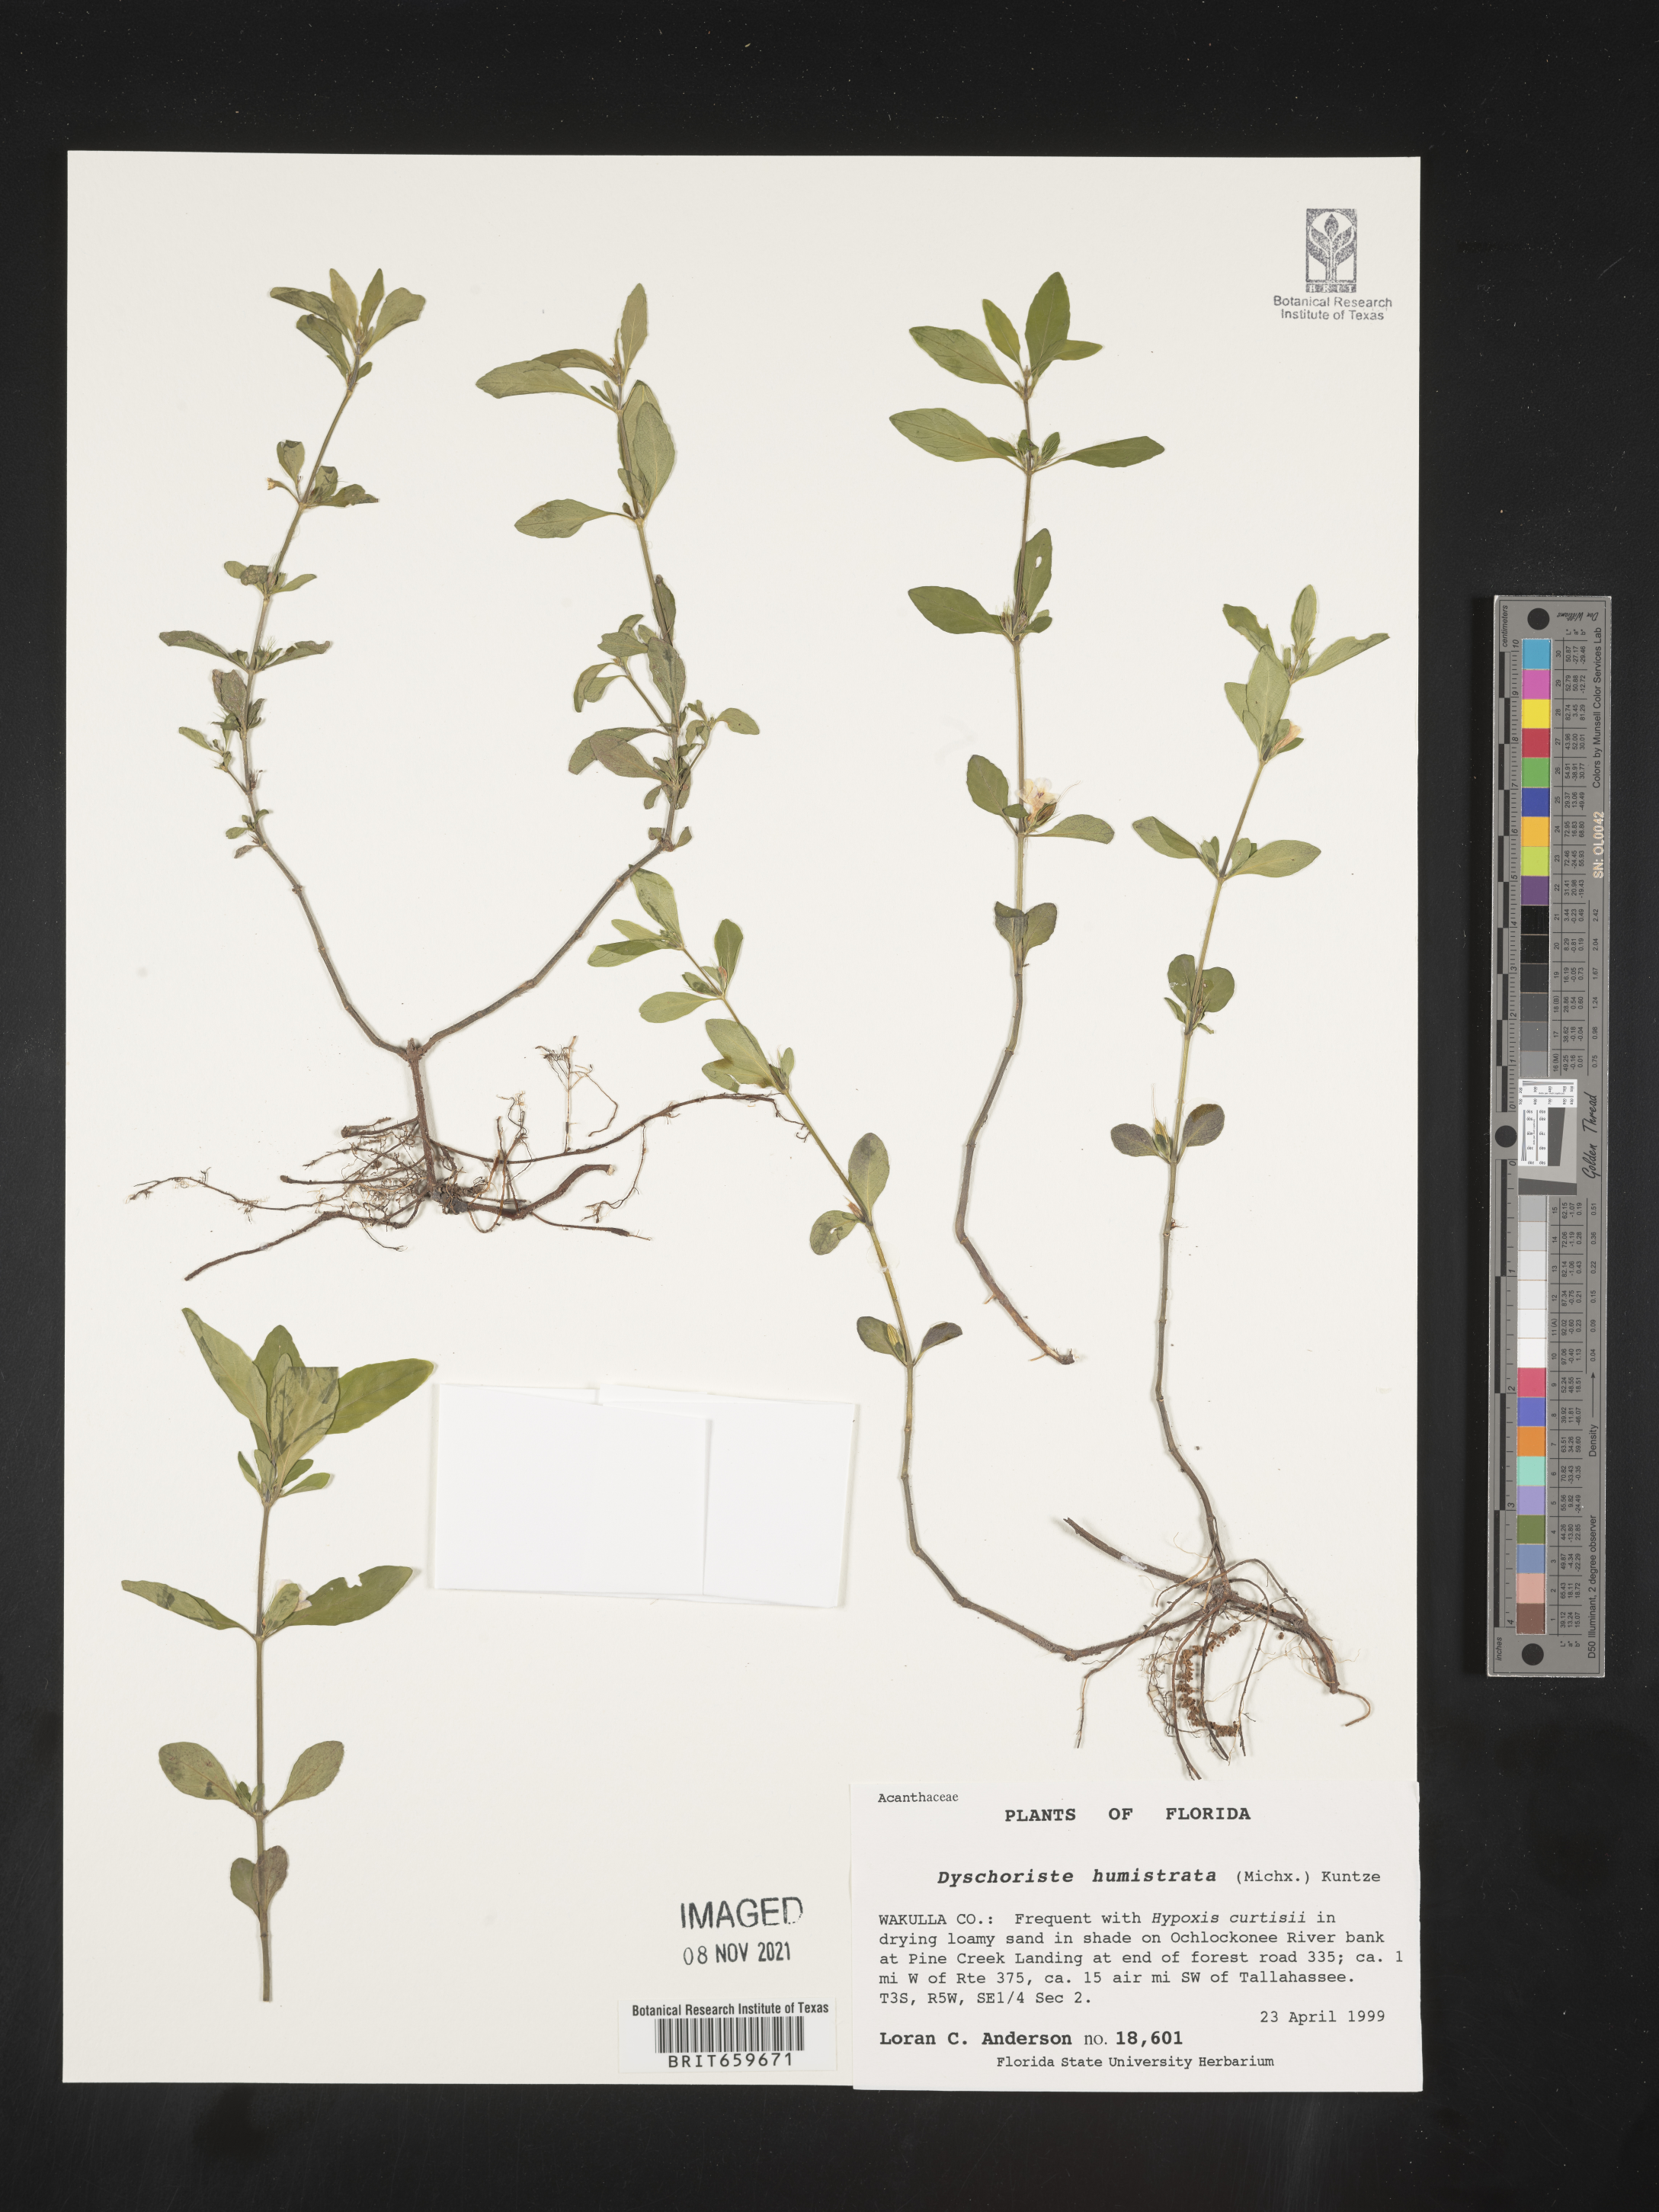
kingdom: Plantae
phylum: Tracheophyta
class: Magnoliopsida
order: Lamiales
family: Acanthaceae
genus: Dyschoriste
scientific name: Dyschoriste
